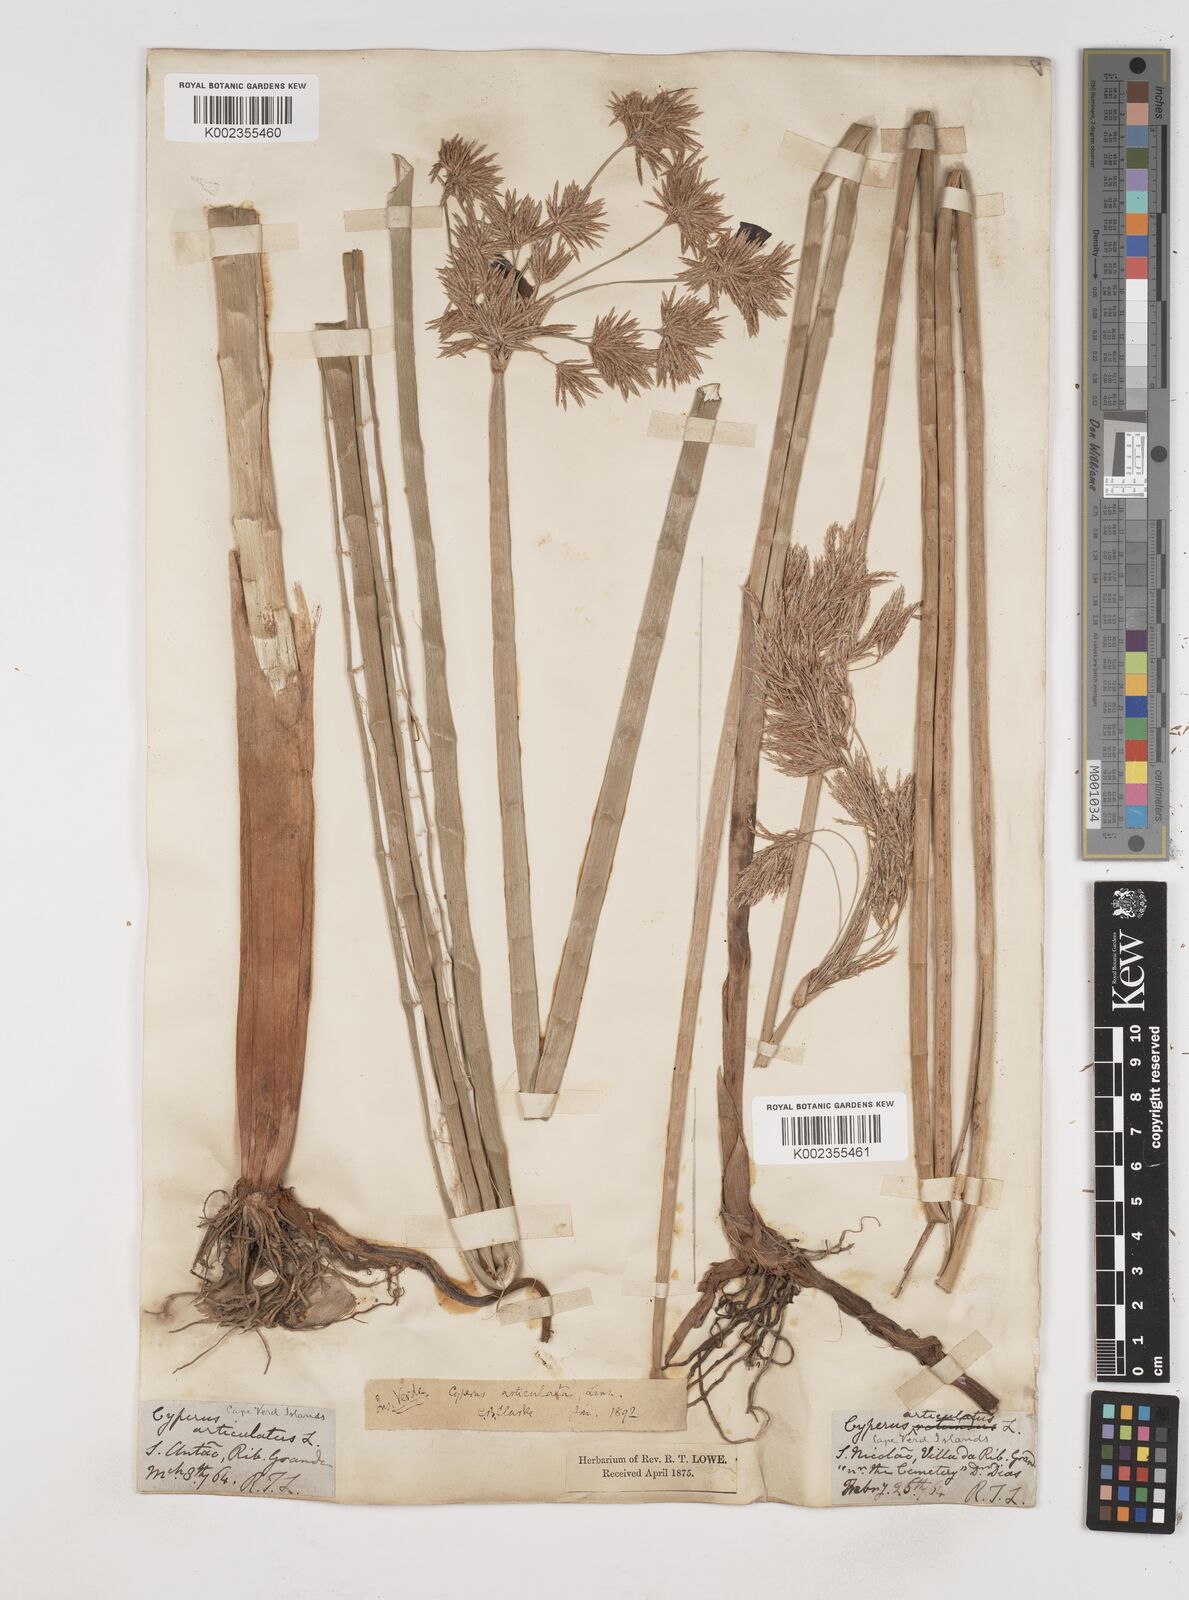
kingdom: Plantae
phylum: Tracheophyta
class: Liliopsida
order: Poales
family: Cyperaceae
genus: Cyperus
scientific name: Cyperus articulatus
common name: Jointed flatsedge
